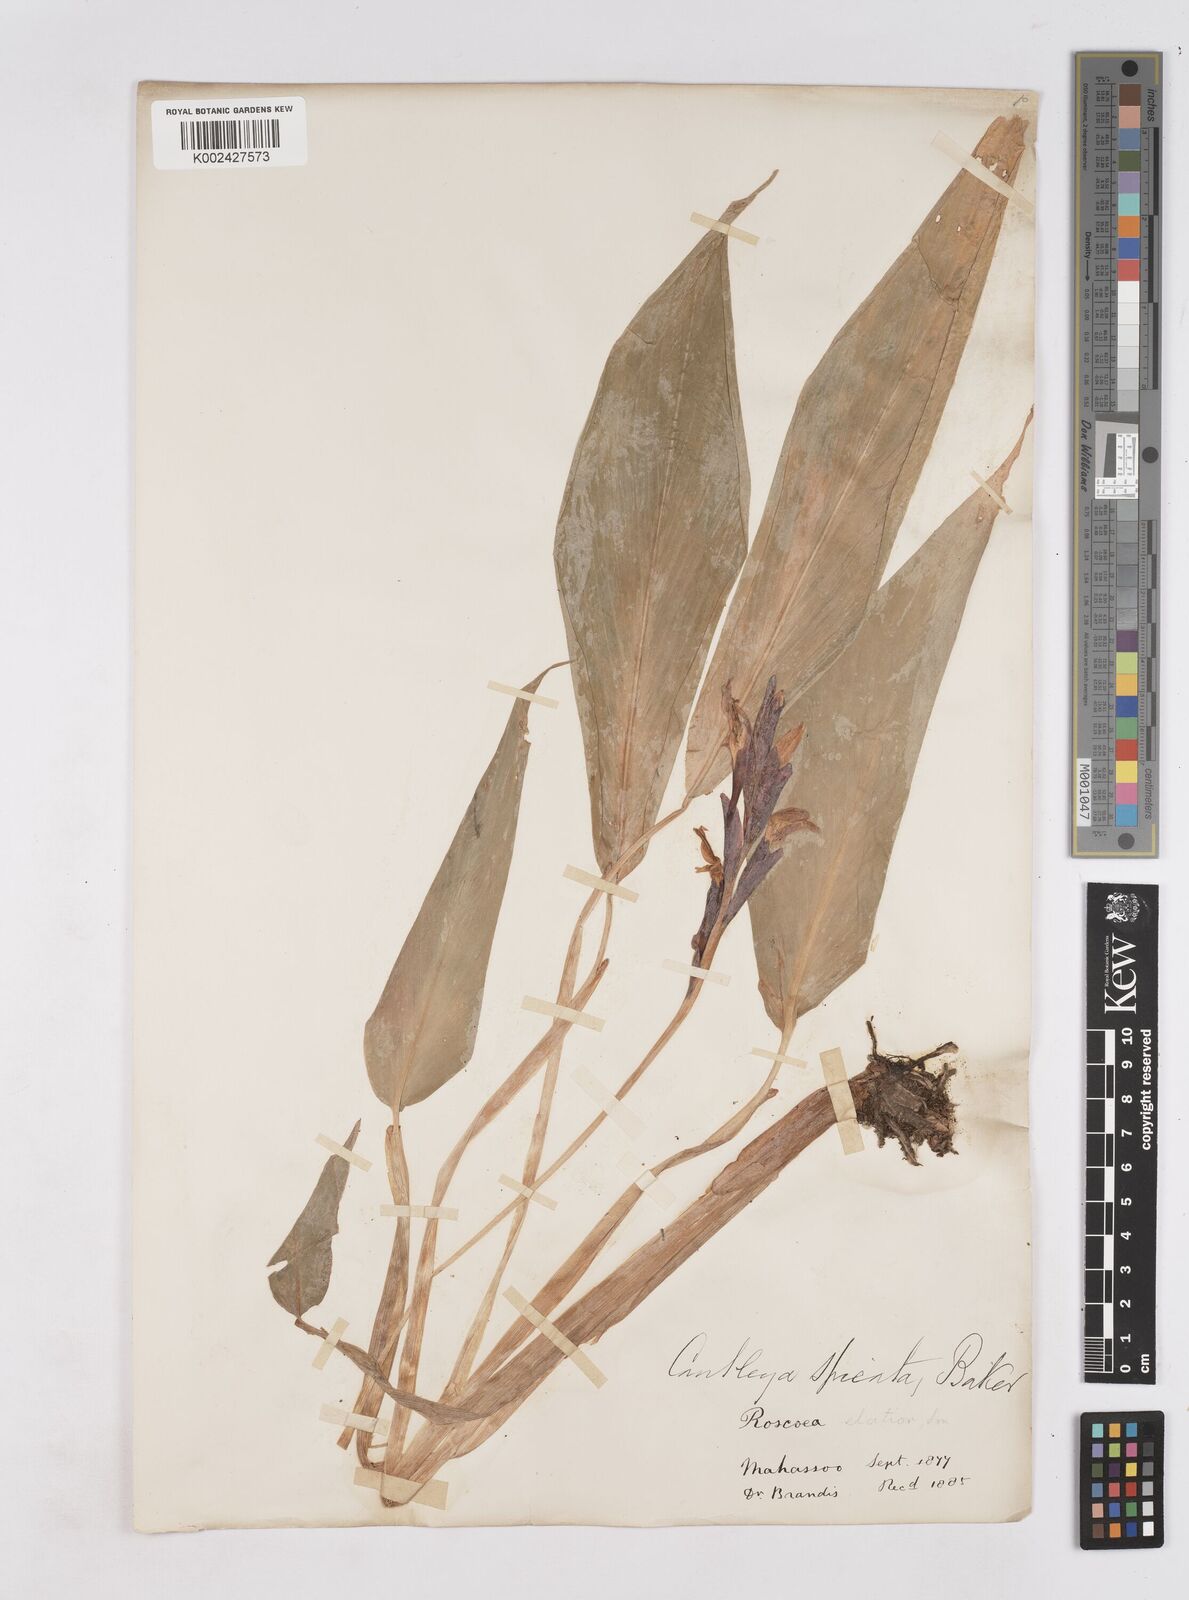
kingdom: Plantae
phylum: Tracheophyta
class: Liliopsida
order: Zingiberales
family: Zingiberaceae
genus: Cautleya
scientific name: Cautleya spicata
